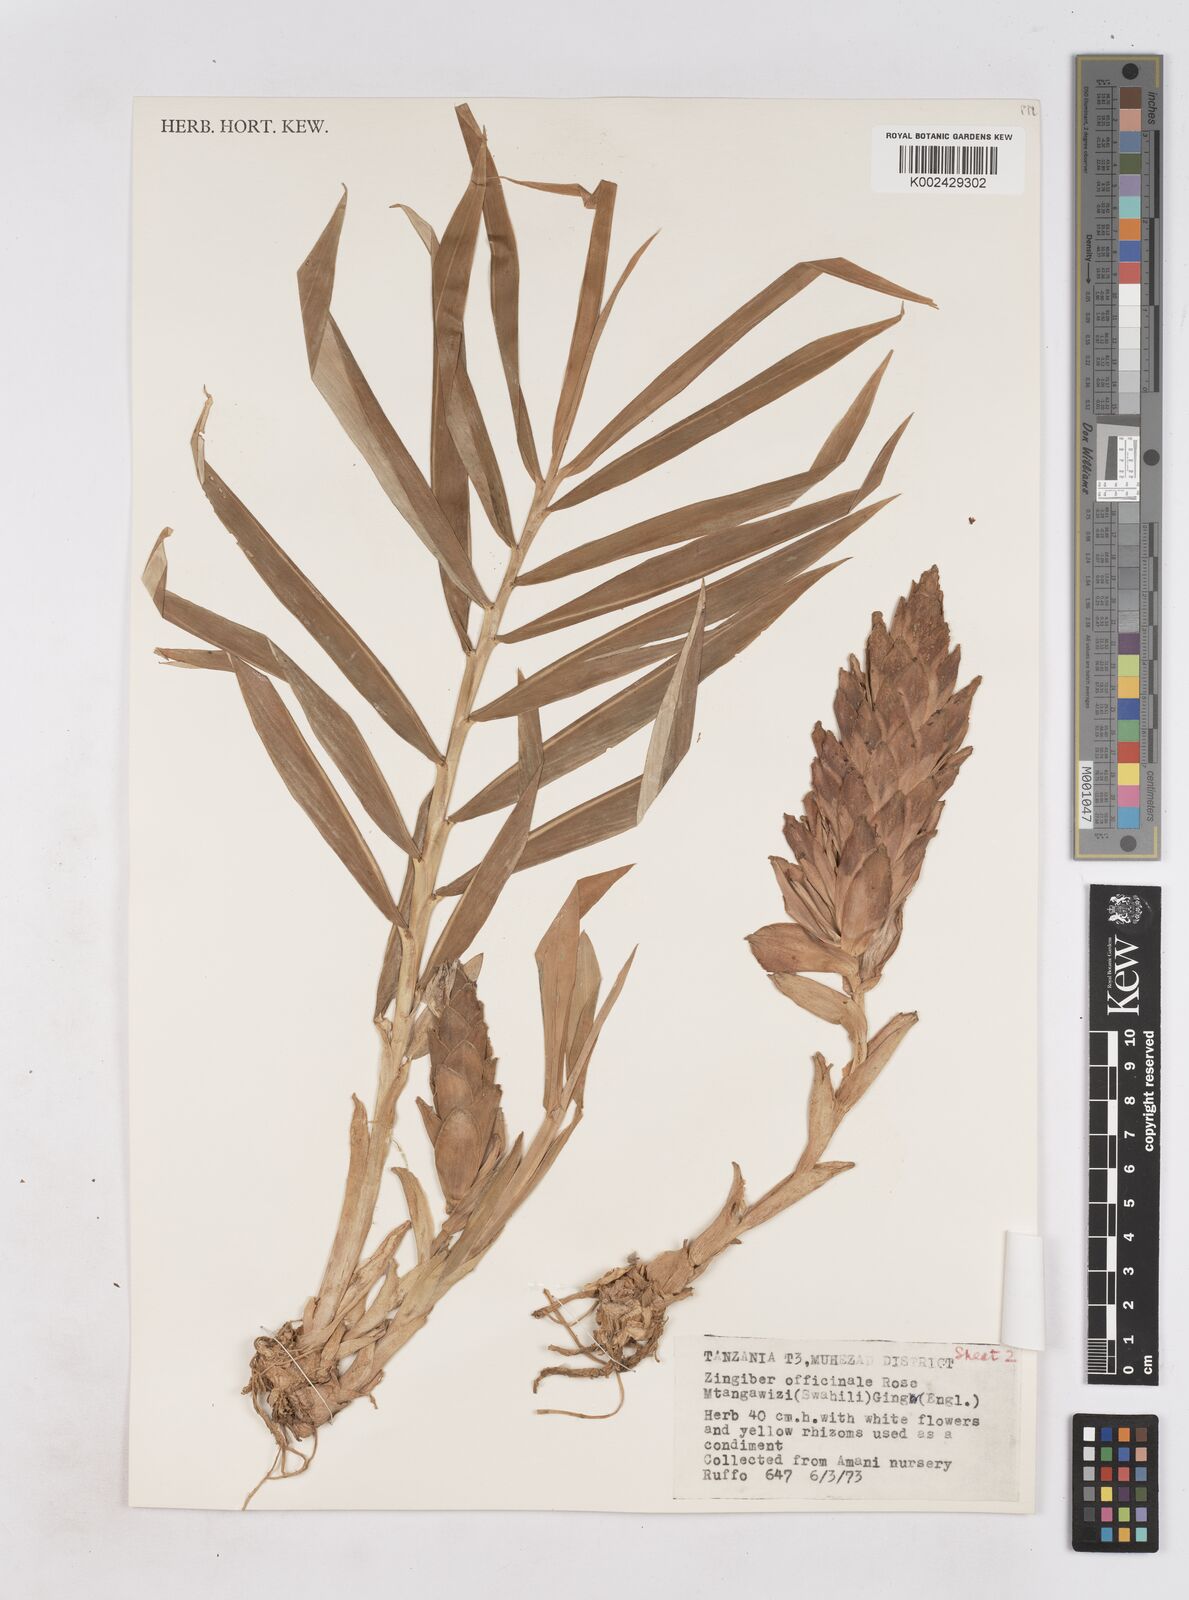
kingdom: Plantae
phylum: Tracheophyta
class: Liliopsida
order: Zingiberales
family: Zingiberaceae
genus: Zingiber
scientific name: Zingiber montanum
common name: Bengal ginger
